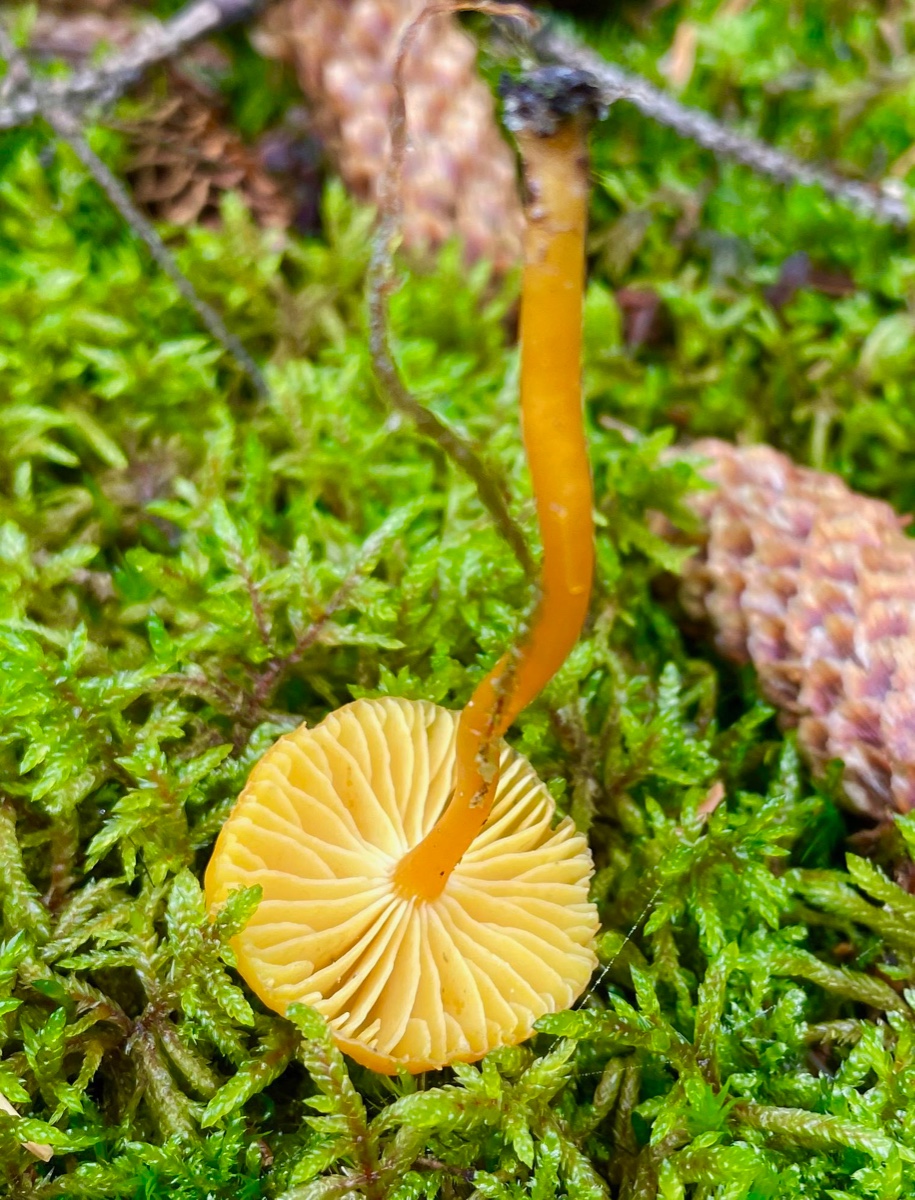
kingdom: Fungi
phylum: Basidiomycota
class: Agaricomycetes
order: Agaricales
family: Hygrophoraceae
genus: Hygrocybe
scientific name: Hygrocybe miniata
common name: mønje-vokshat
